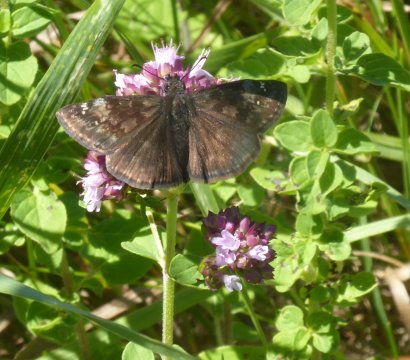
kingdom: Animalia
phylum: Arthropoda
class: Insecta
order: Lepidoptera
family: Hesperiidae
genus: Gesta
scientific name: Gesta
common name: Wild Indigo Duskywing
